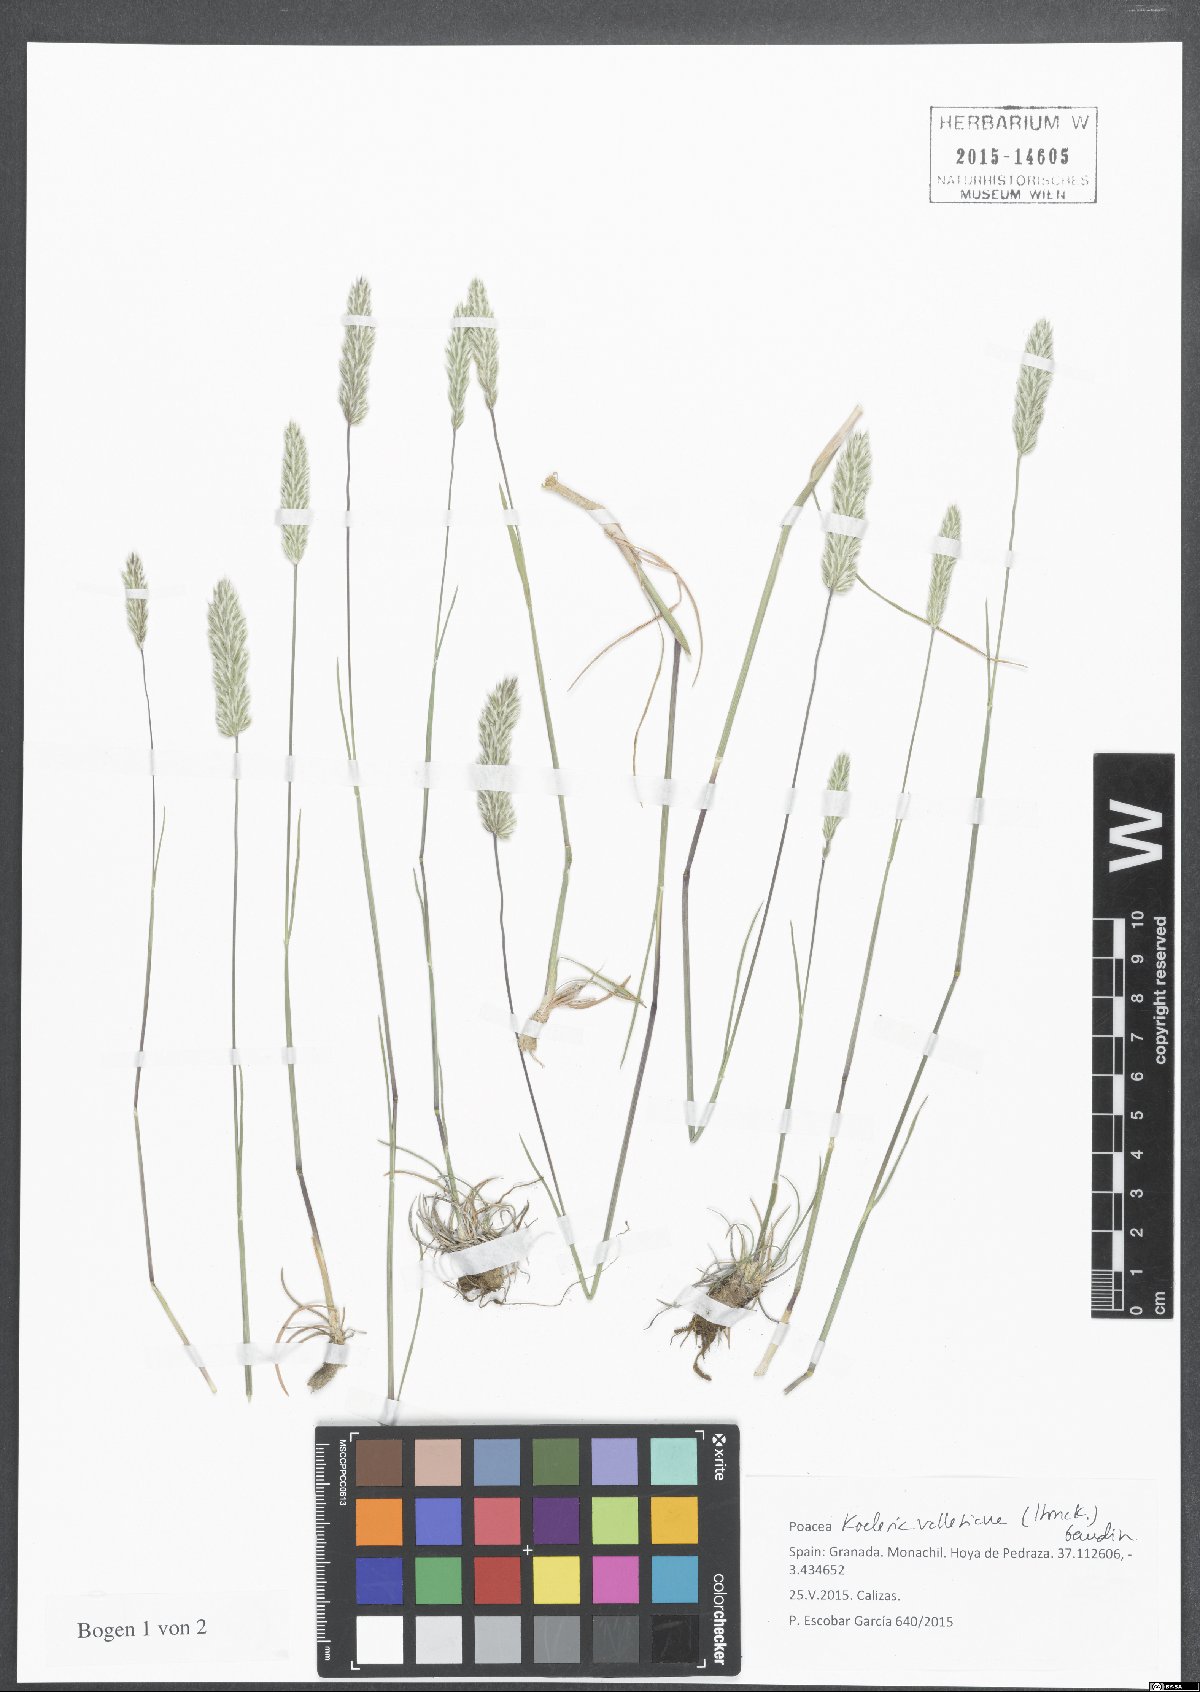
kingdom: Plantae
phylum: Tracheophyta
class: Liliopsida
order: Poales
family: Poaceae
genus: Koeleria
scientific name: Koeleria vallesiana
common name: Somerset hair-grass
